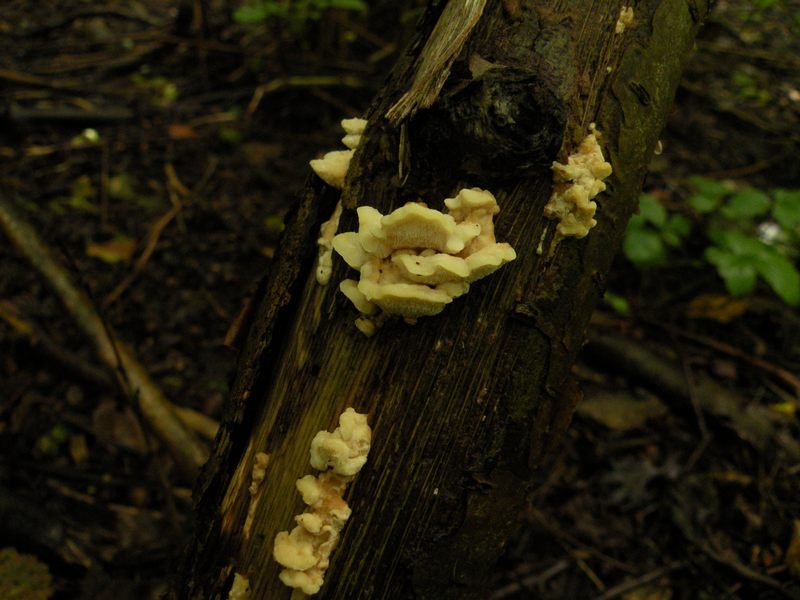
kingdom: Fungi
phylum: Basidiomycota
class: Agaricomycetes
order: Polyporales
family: Steccherinaceae
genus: Antrodiella
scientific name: Antrodiella serpula
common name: gulrandet elastikporesvamp
